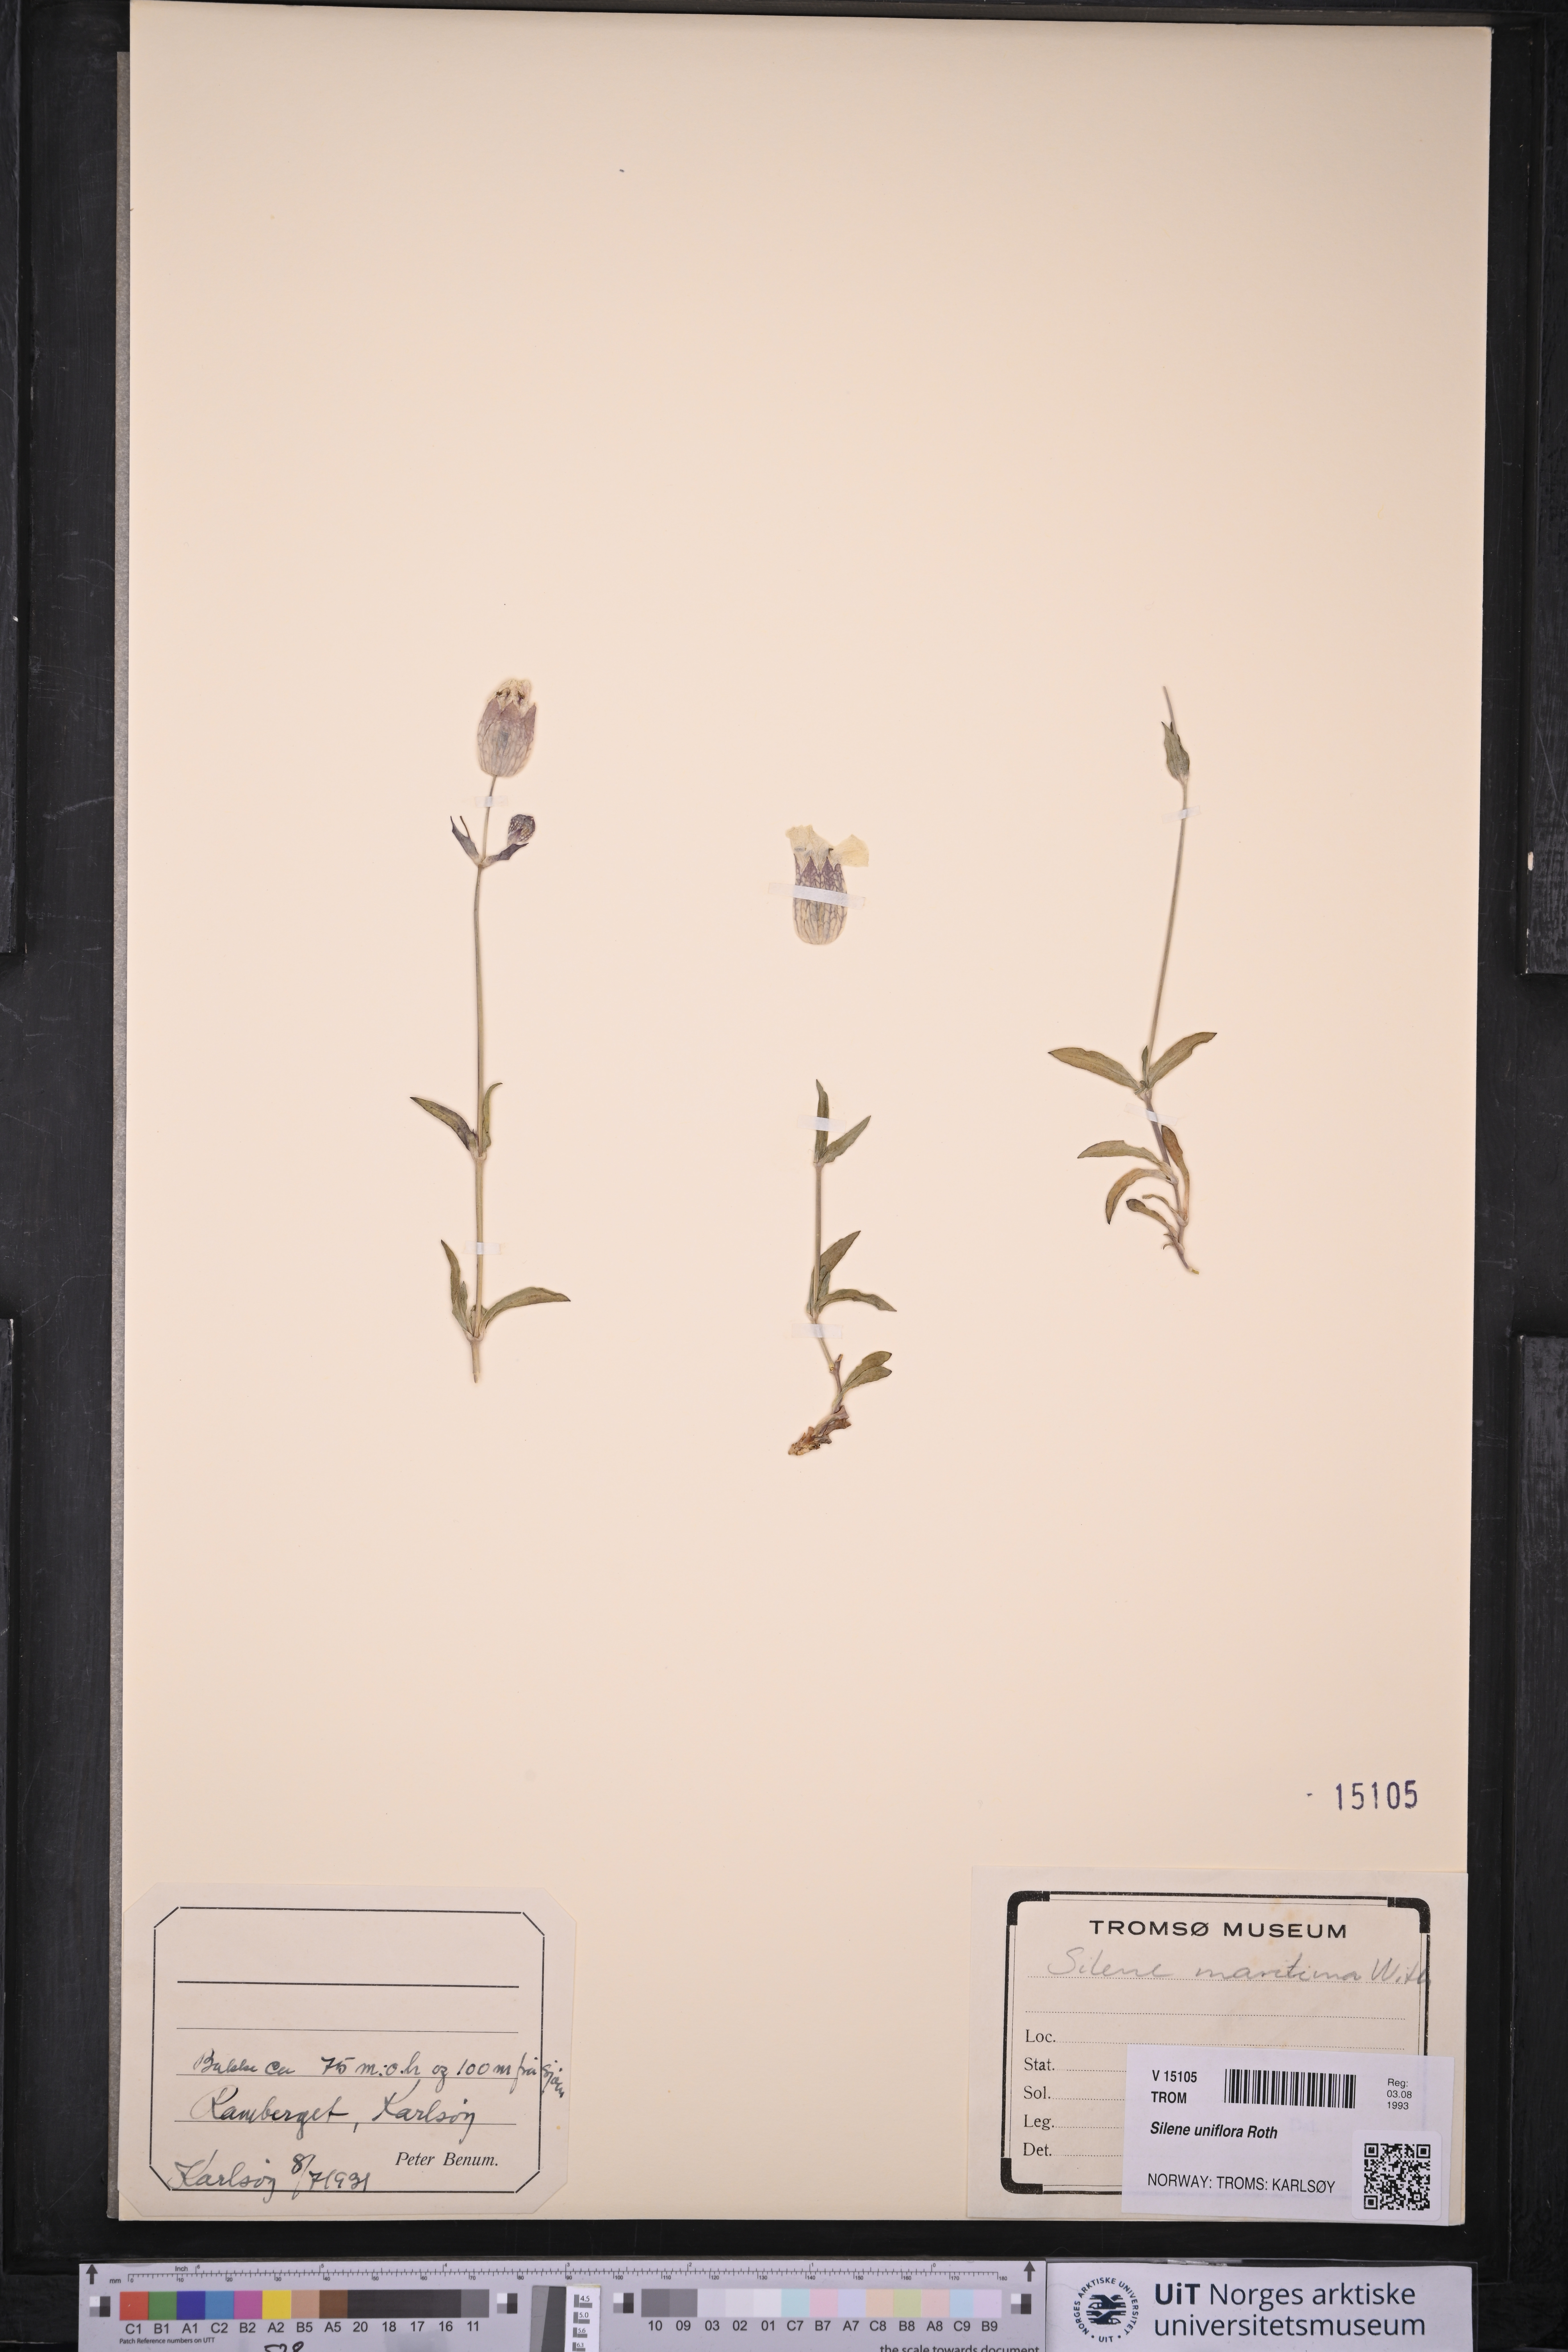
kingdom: Plantae
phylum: Tracheophyta
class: Magnoliopsida
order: Caryophyllales
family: Caryophyllaceae
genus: Silene
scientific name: Silene uniflora
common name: Sea campion
